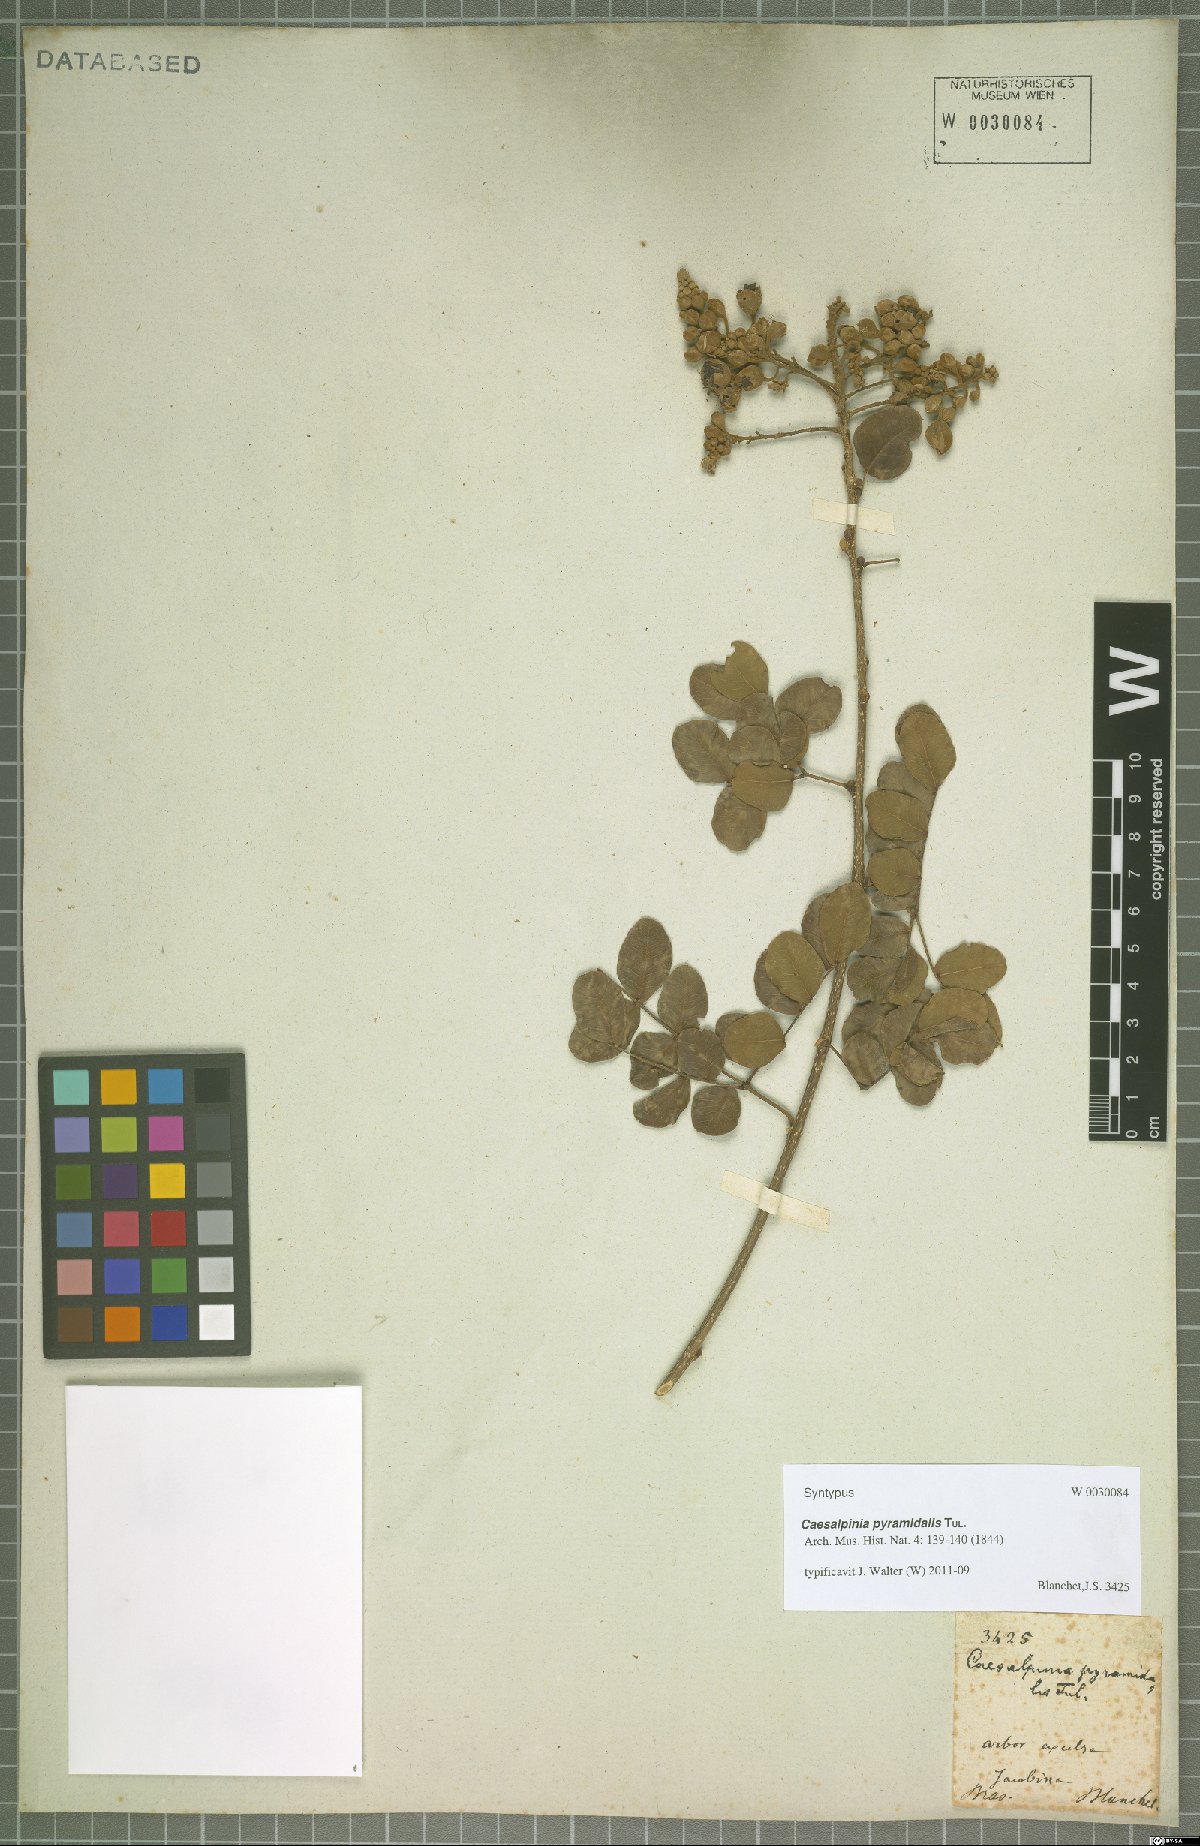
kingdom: Plantae
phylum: Tracheophyta
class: Magnoliopsida
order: Fabales
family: Fabaceae
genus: Cenostigma
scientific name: Cenostigma pyramidale
